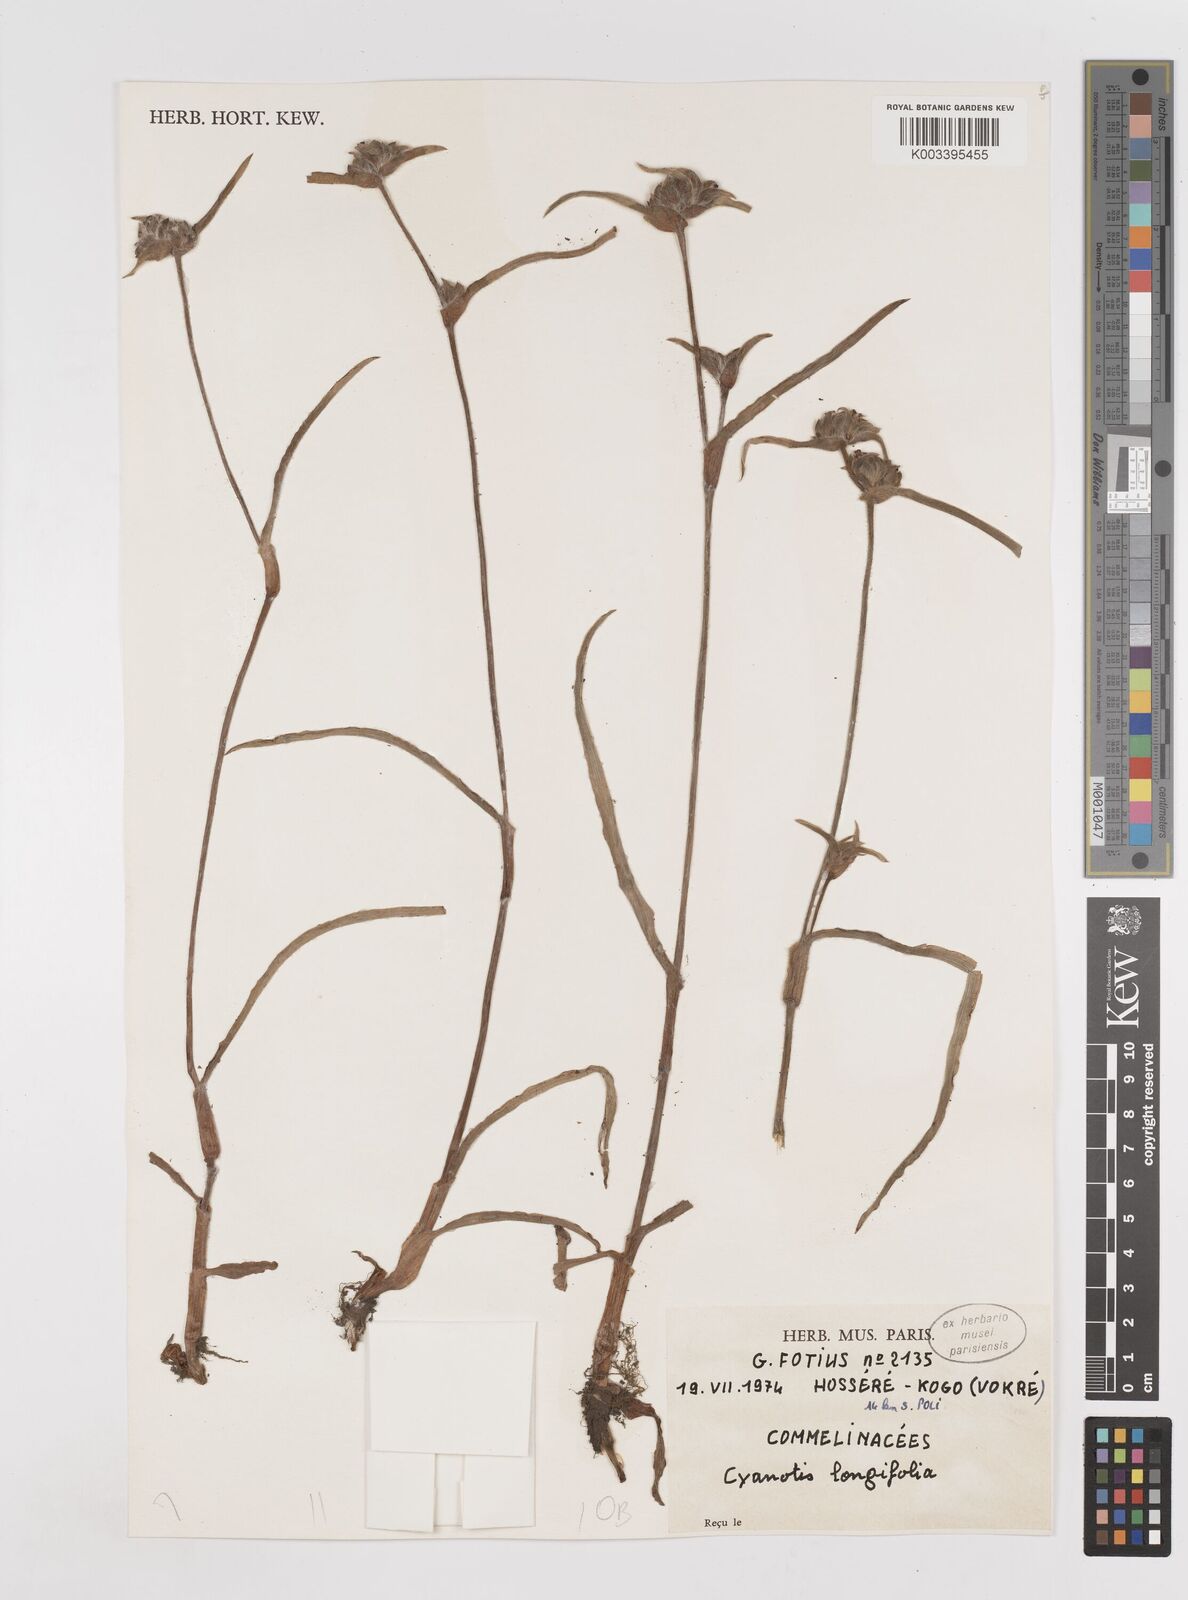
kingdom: Plantae
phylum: Tracheophyta
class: Liliopsida
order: Commelinales
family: Commelinaceae
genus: Cyanotis
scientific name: Cyanotis longifolia
